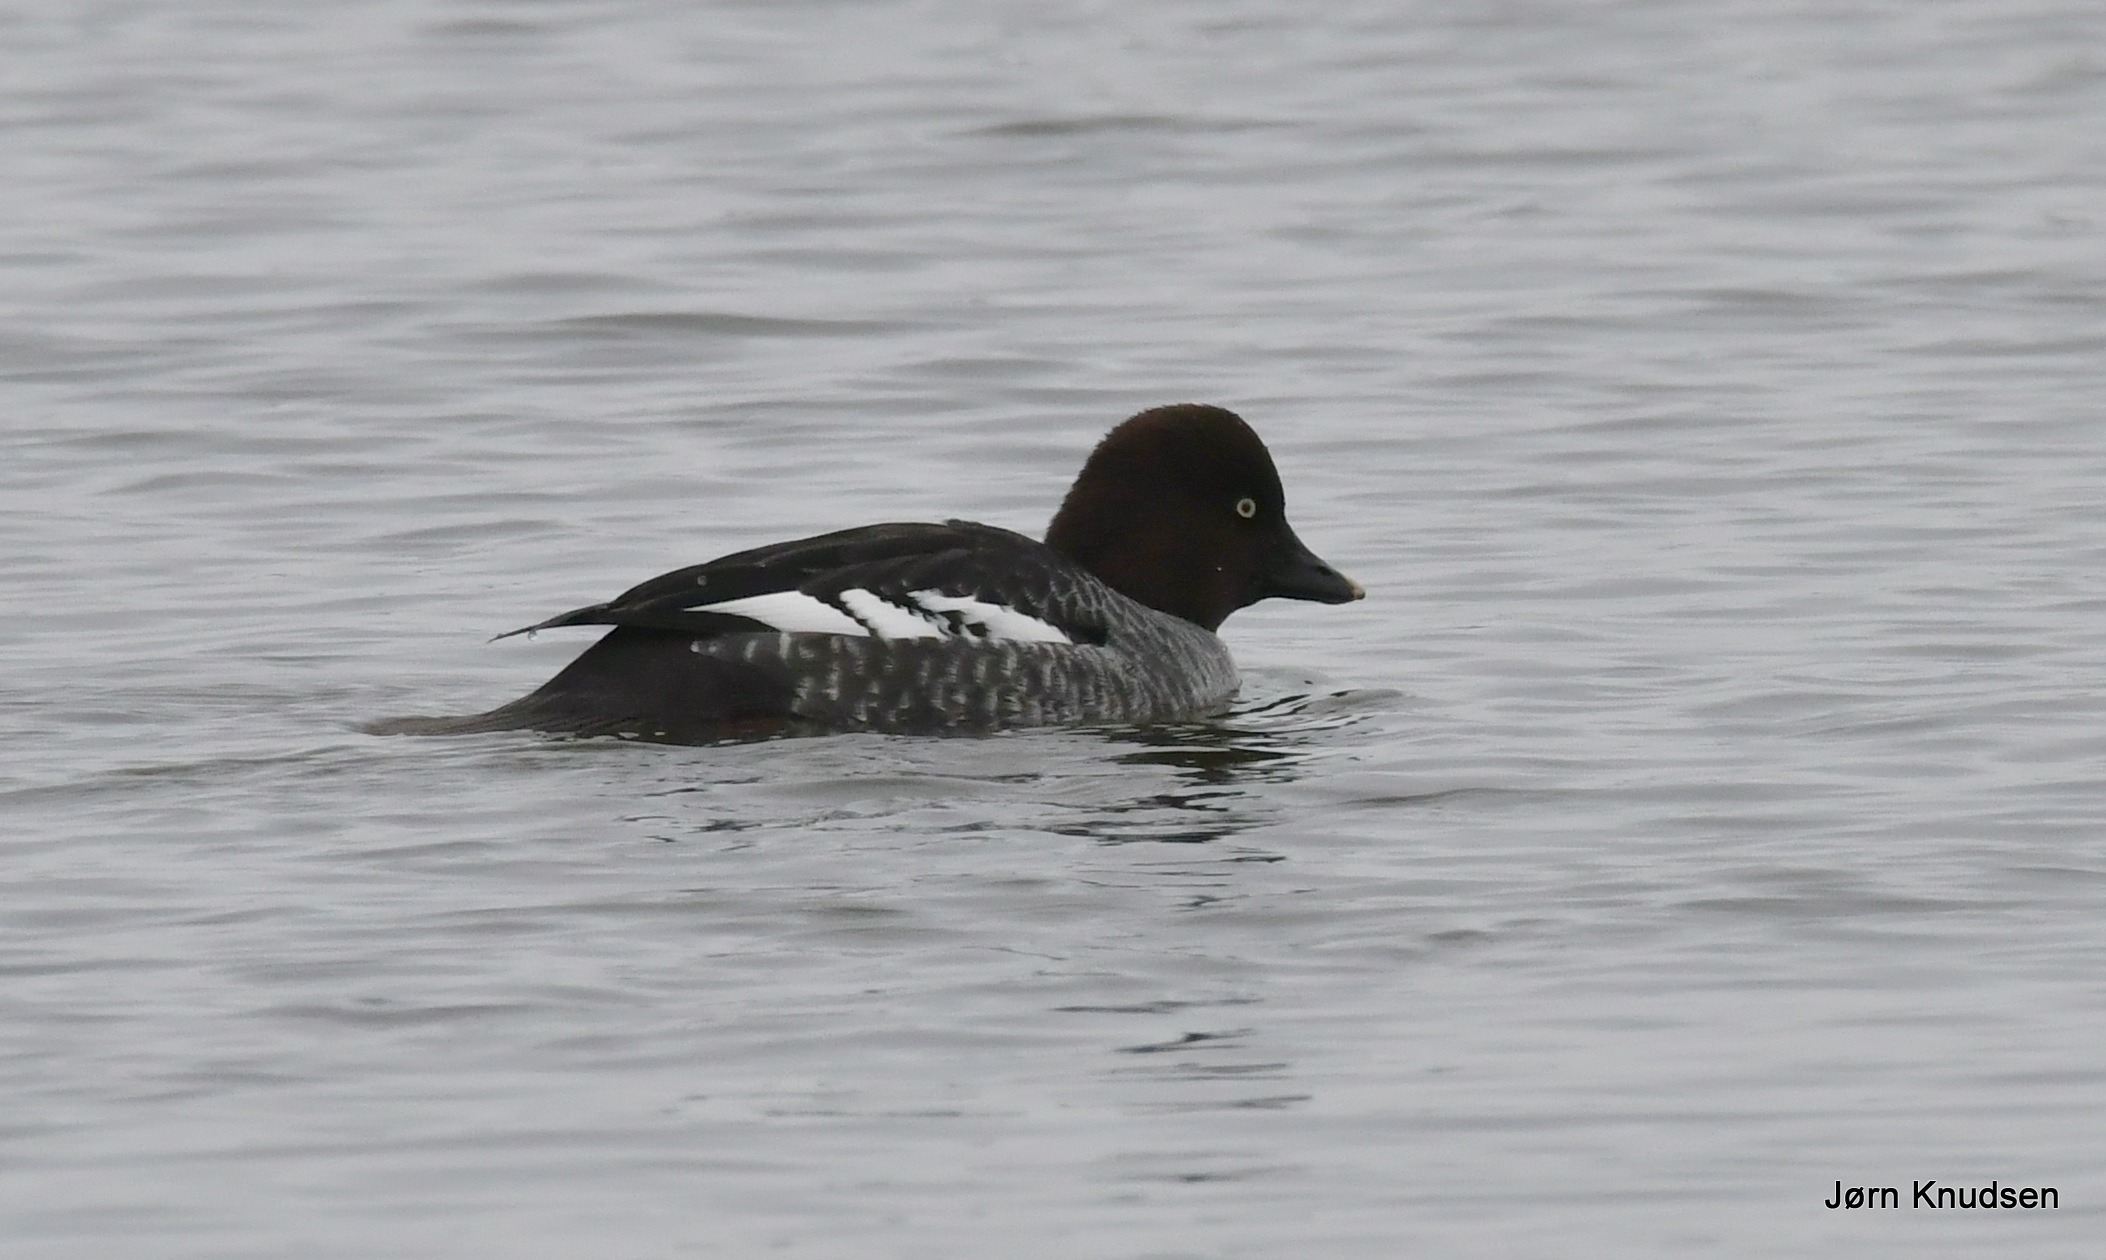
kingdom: Animalia
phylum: Chordata
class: Aves
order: Anseriformes
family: Anatidae
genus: Bucephala
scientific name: Bucephala clangula
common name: Hvinand
